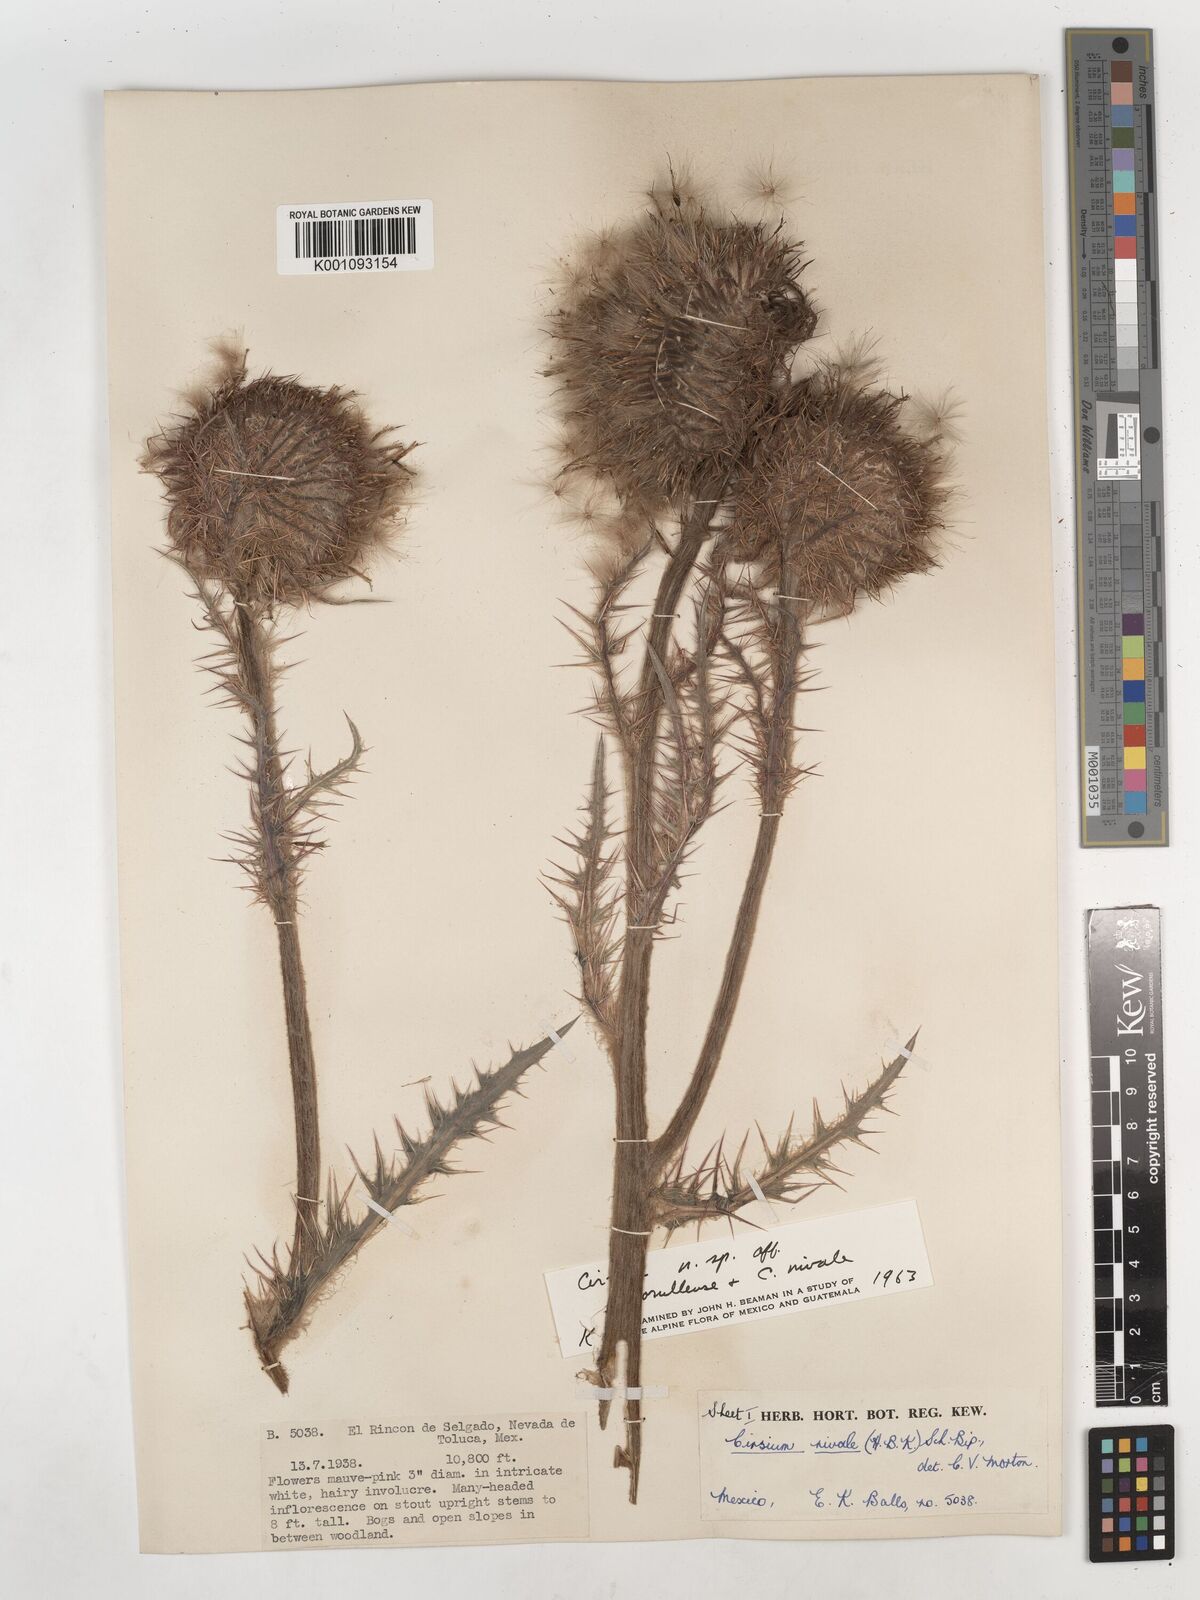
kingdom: Plantae
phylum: Tracheophyta
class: Magnoliopsida
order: Asterales
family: Asteraceae
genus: Cirsium
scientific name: Cirsium
